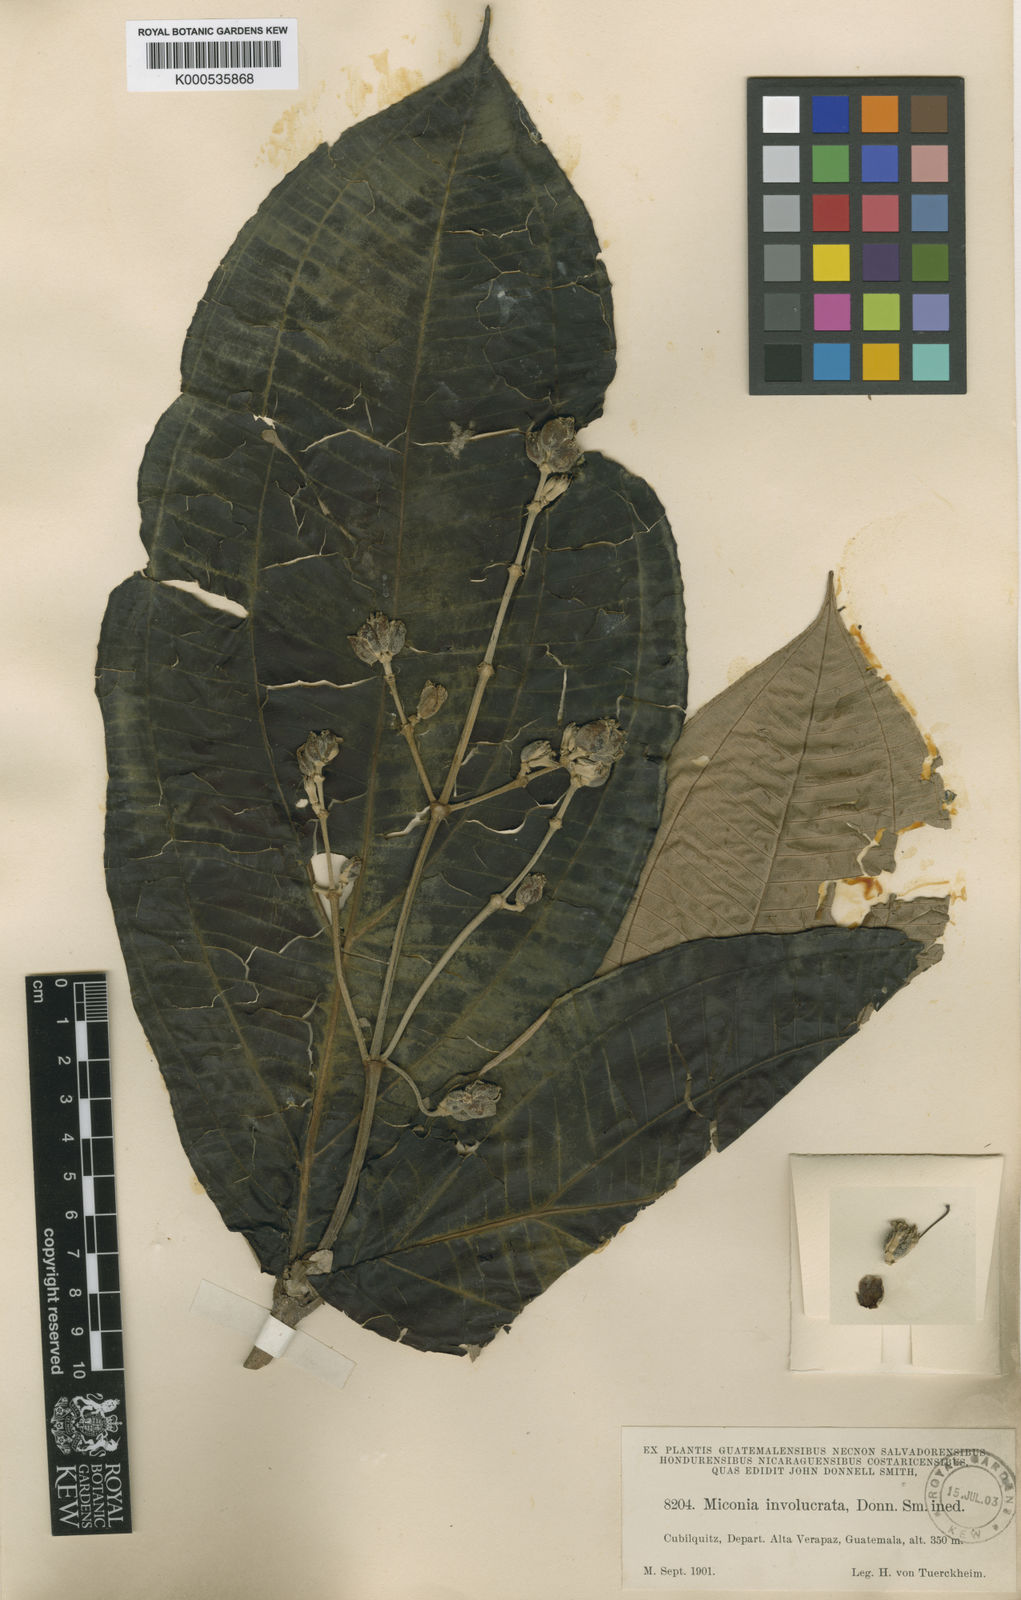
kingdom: Plantae
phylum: Tracheophyta
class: Magnoliopsida
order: Myrtales
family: Melastomataceae
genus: Miconia
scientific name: Miconia ampla
